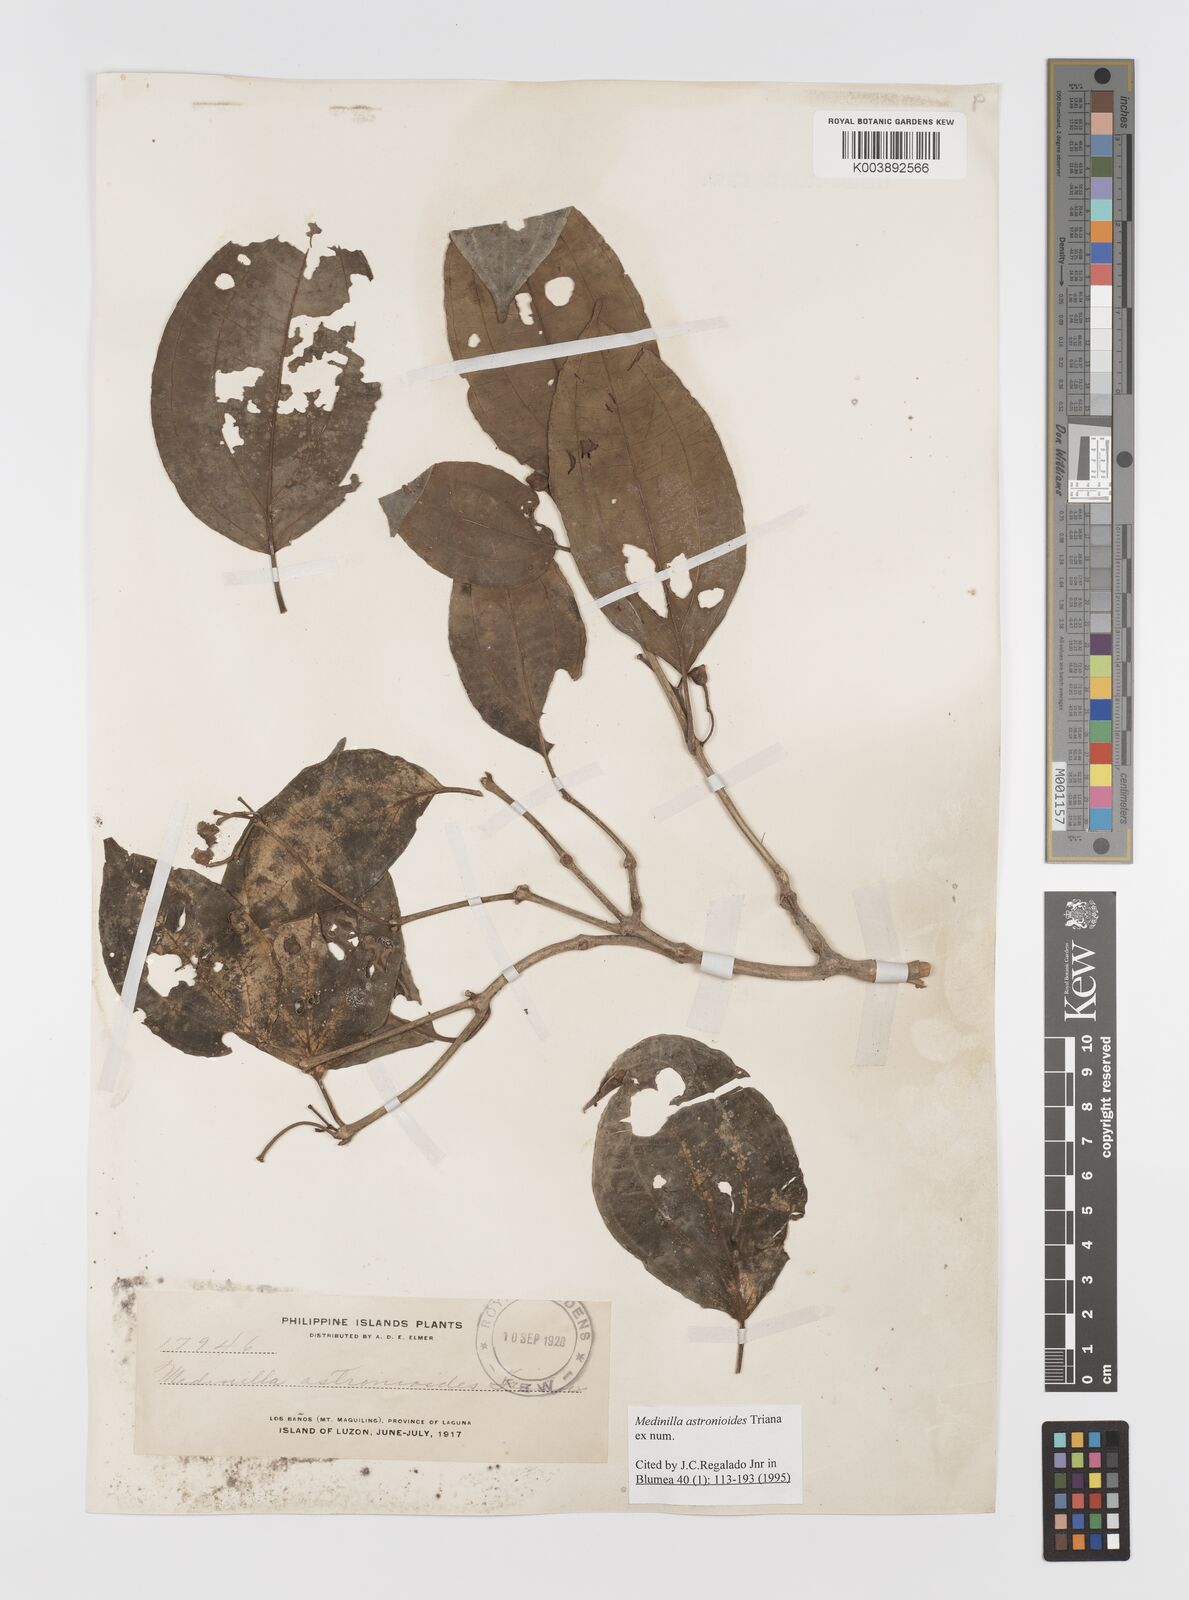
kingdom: Plantae
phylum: Tracheophyta
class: Magnoliopsida
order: Myrtales
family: Melastomataceae
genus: Medinilla
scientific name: Medinilla astronioides
